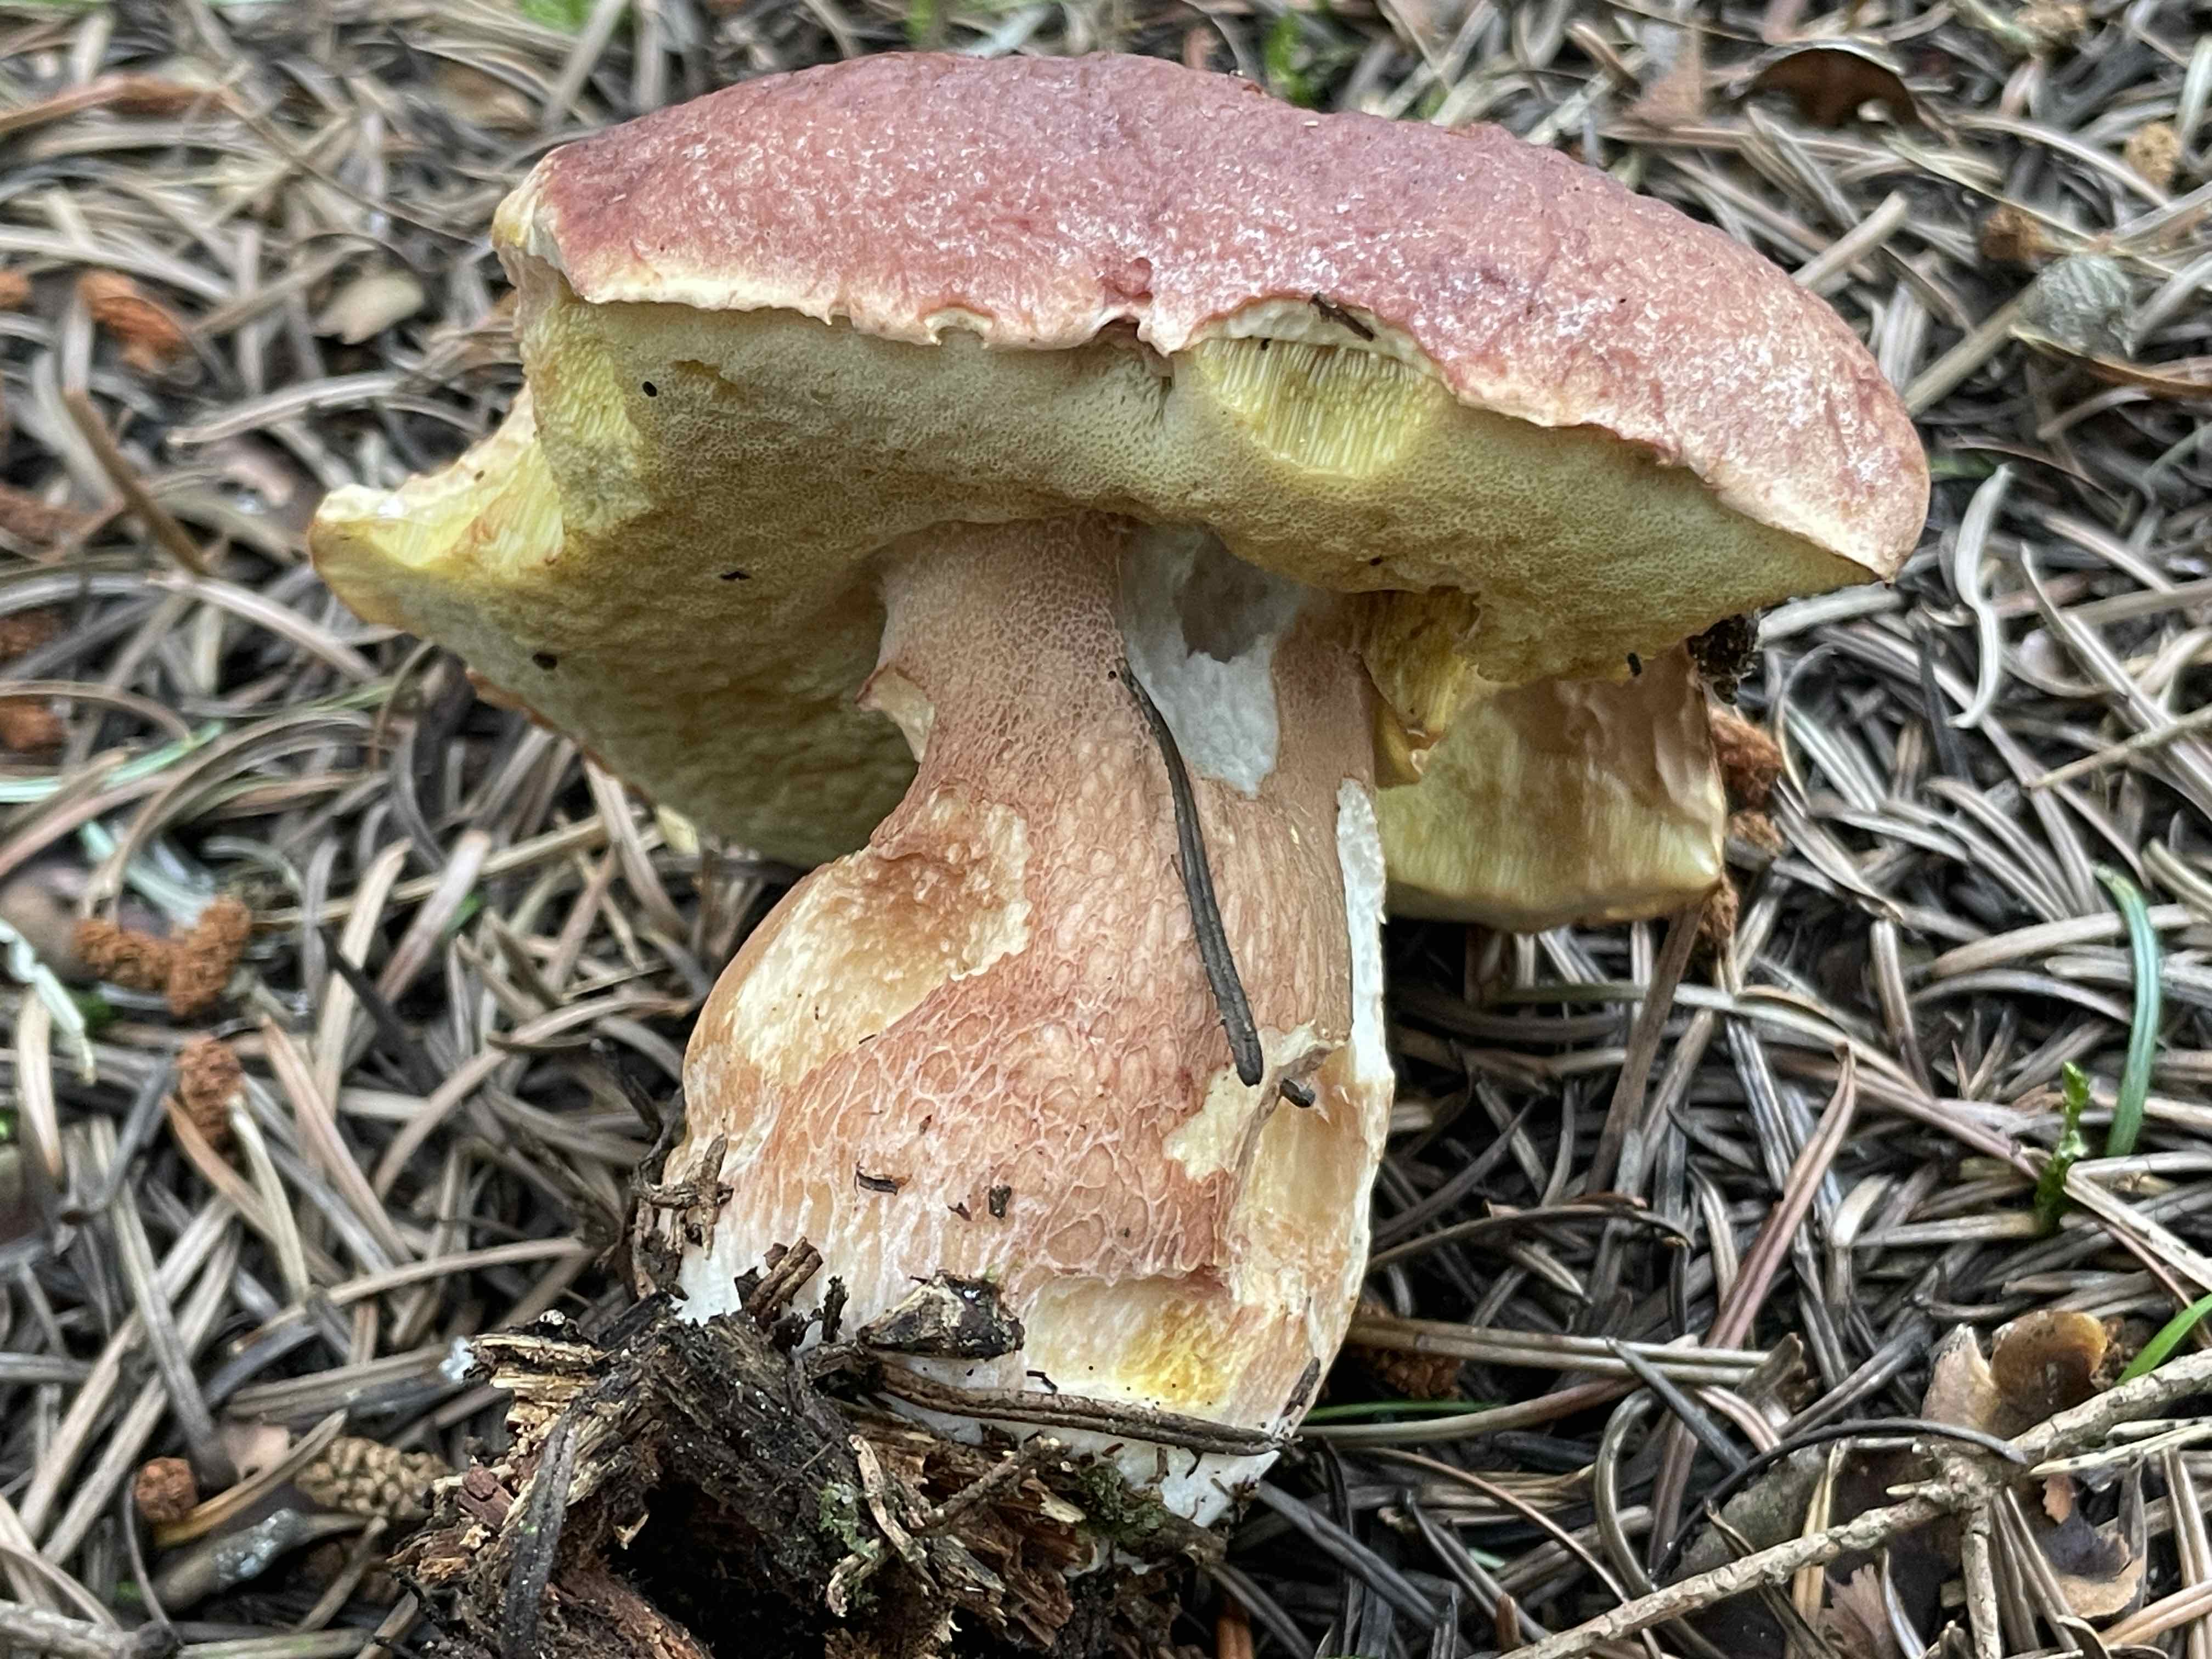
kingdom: Fungi
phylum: Basidiomycota
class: Agaricomycetes
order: Boletales
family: Boletaceae
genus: Boletus
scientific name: Boletus pinophilus
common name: rødbrun rørhat
